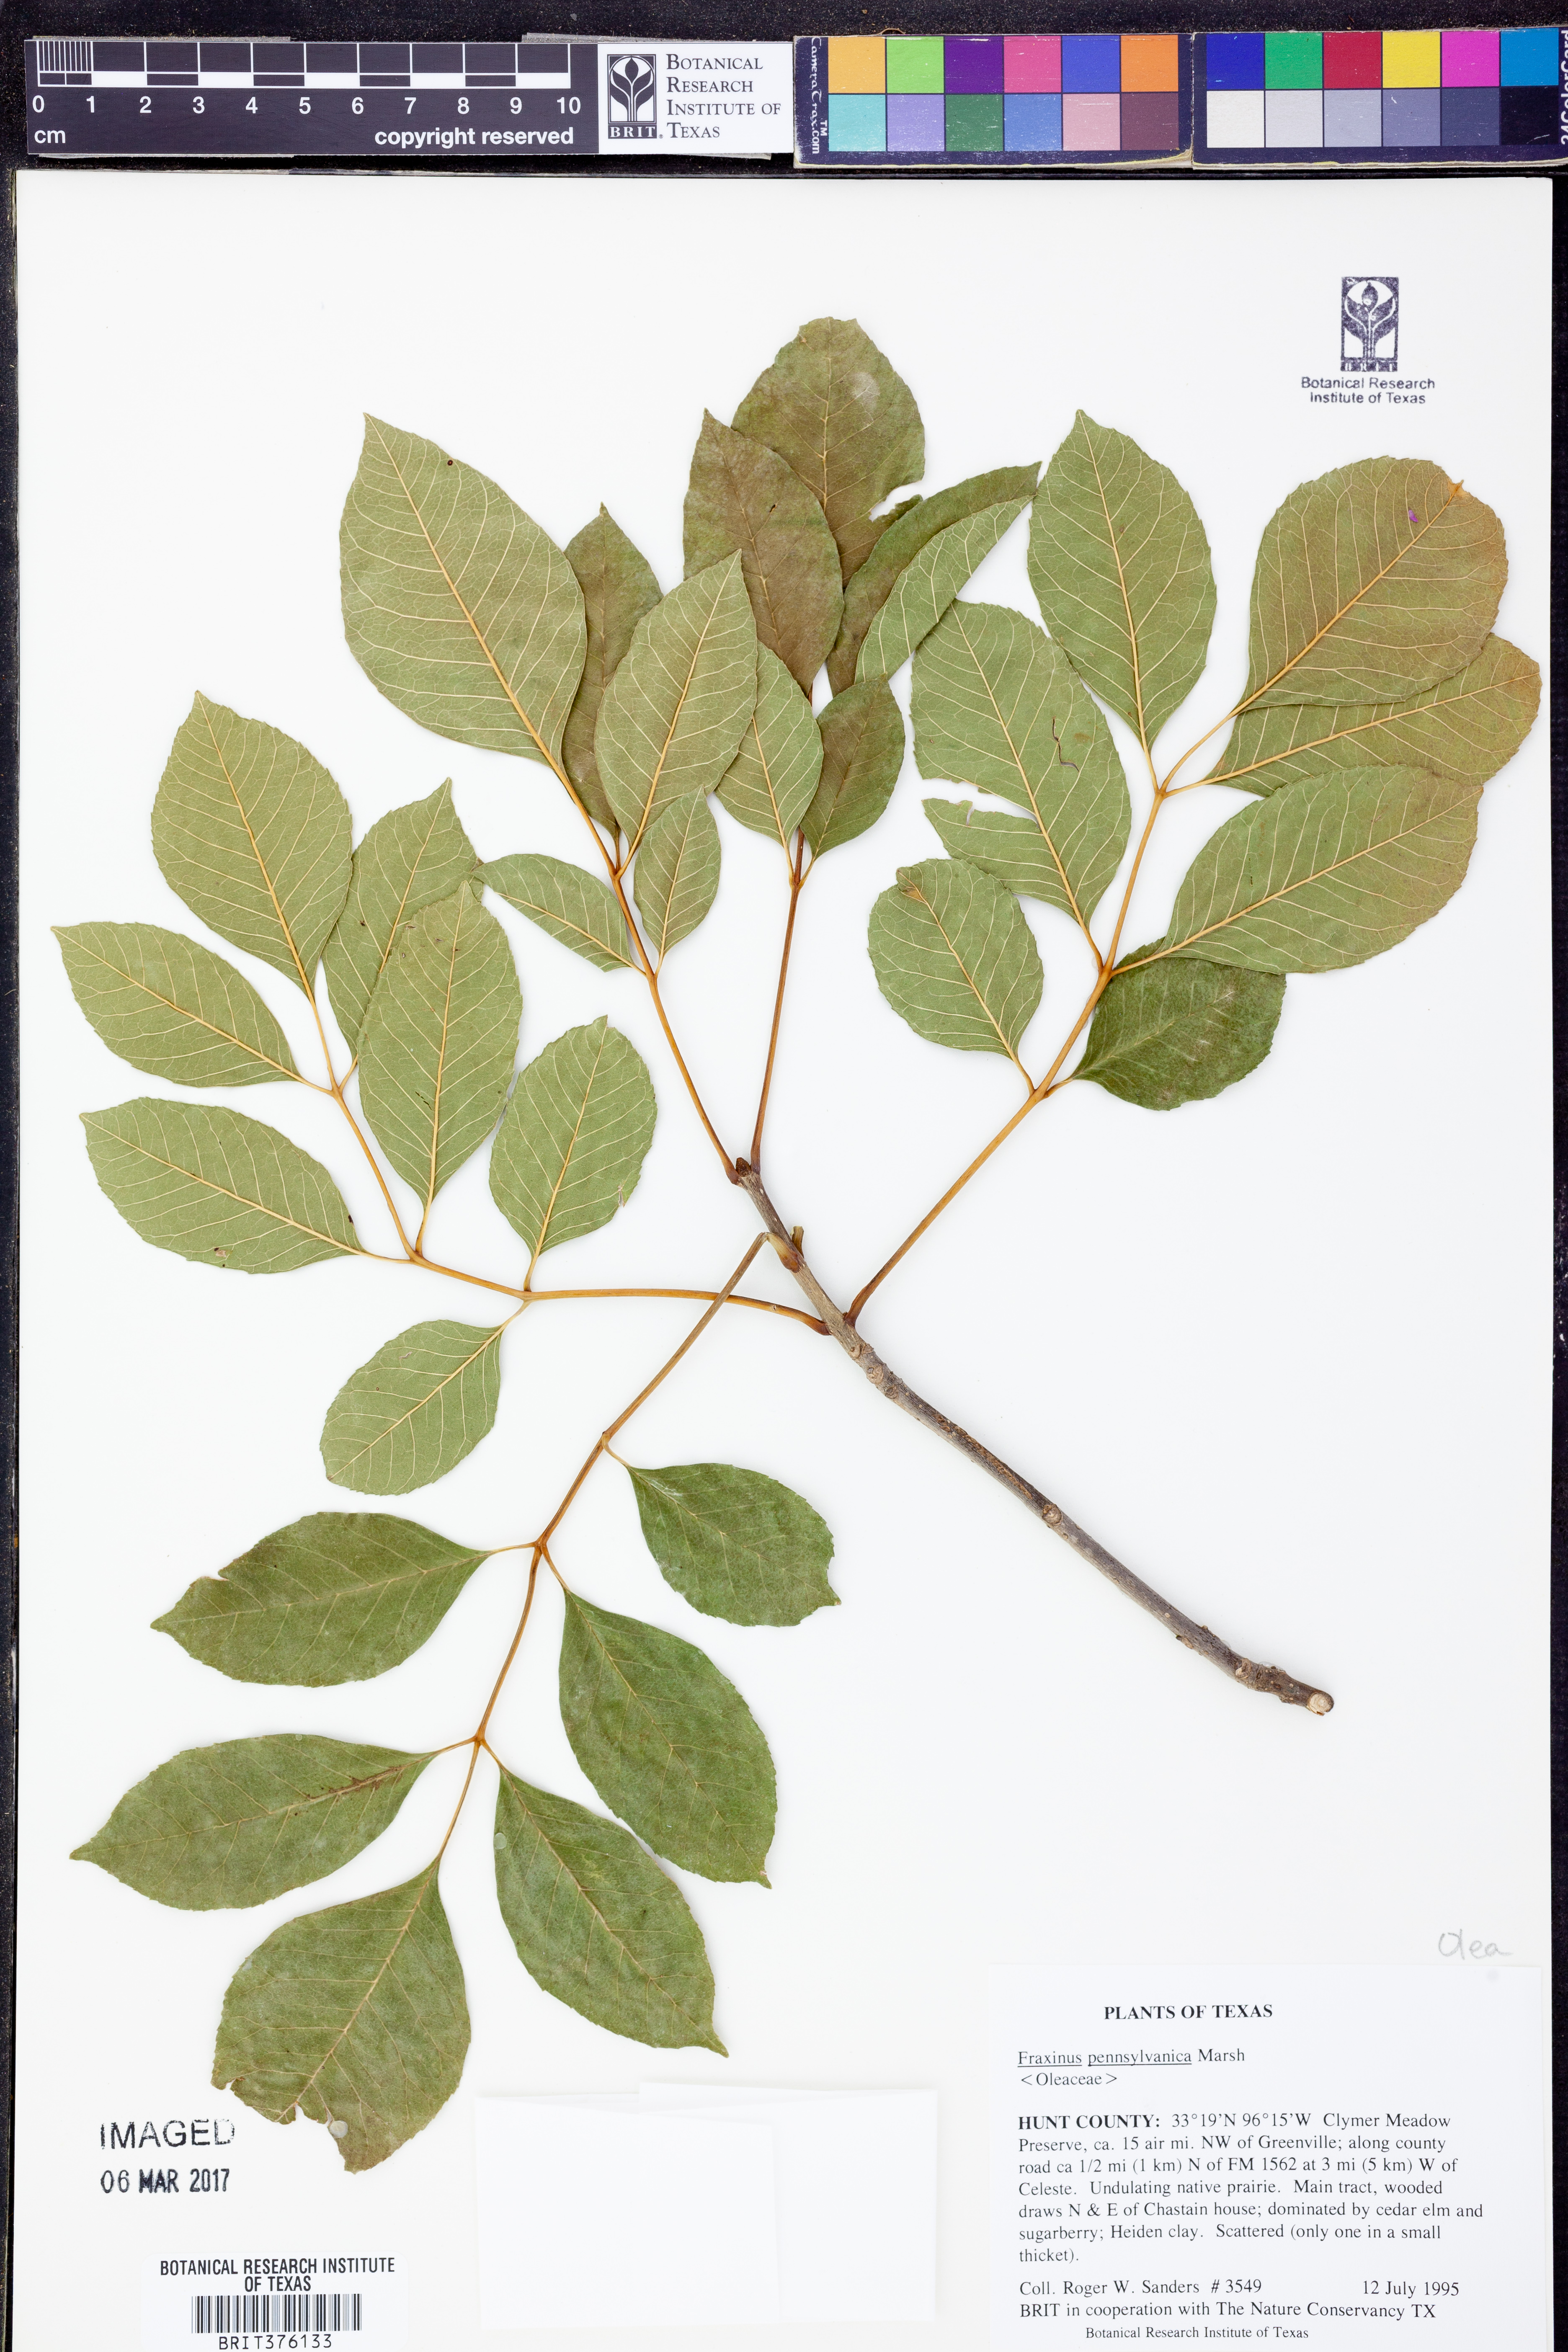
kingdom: Plantae
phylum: Tracheophyta
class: Magnoliopsida
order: Lamiales
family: Oleaceae
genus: Fraxinus
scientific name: Fraxinus pennsylvanica
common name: Green ash
